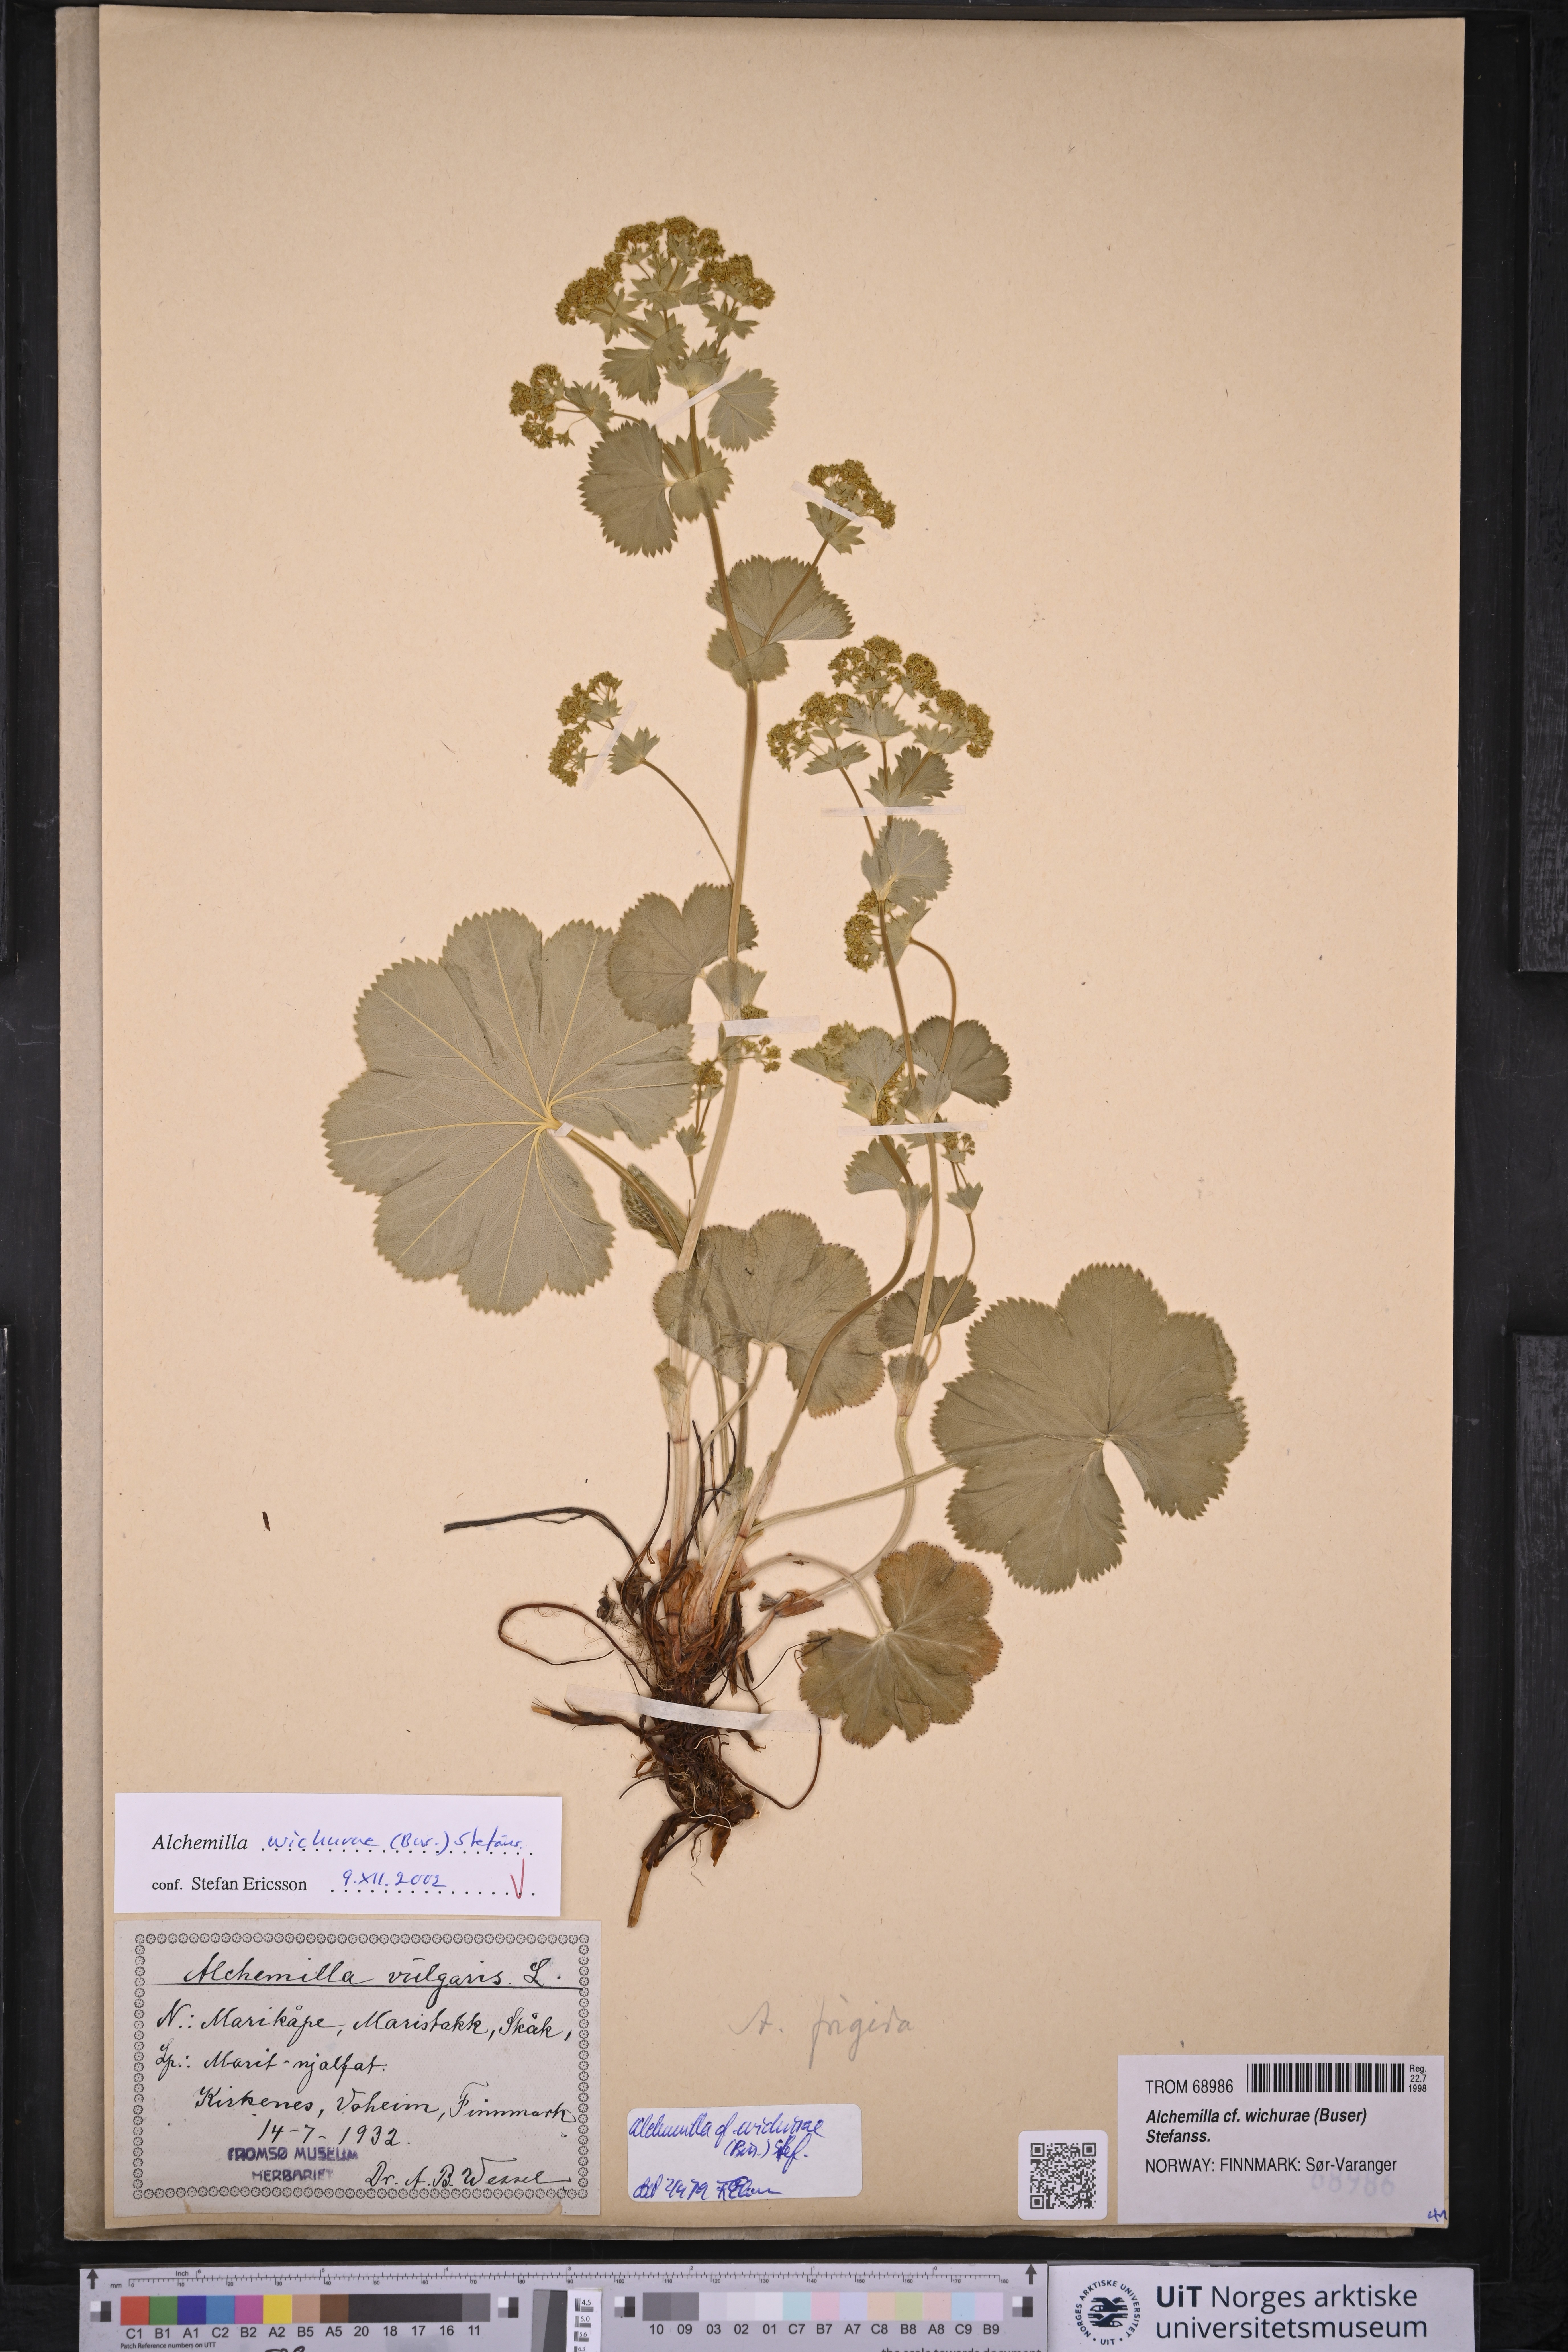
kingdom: Plantae
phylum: Tracheophyta
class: Magnoliopsida
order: Rosales
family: Rosaceae
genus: Alchemilla
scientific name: Alchemilla wichurae
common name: Rock lady's mantle
